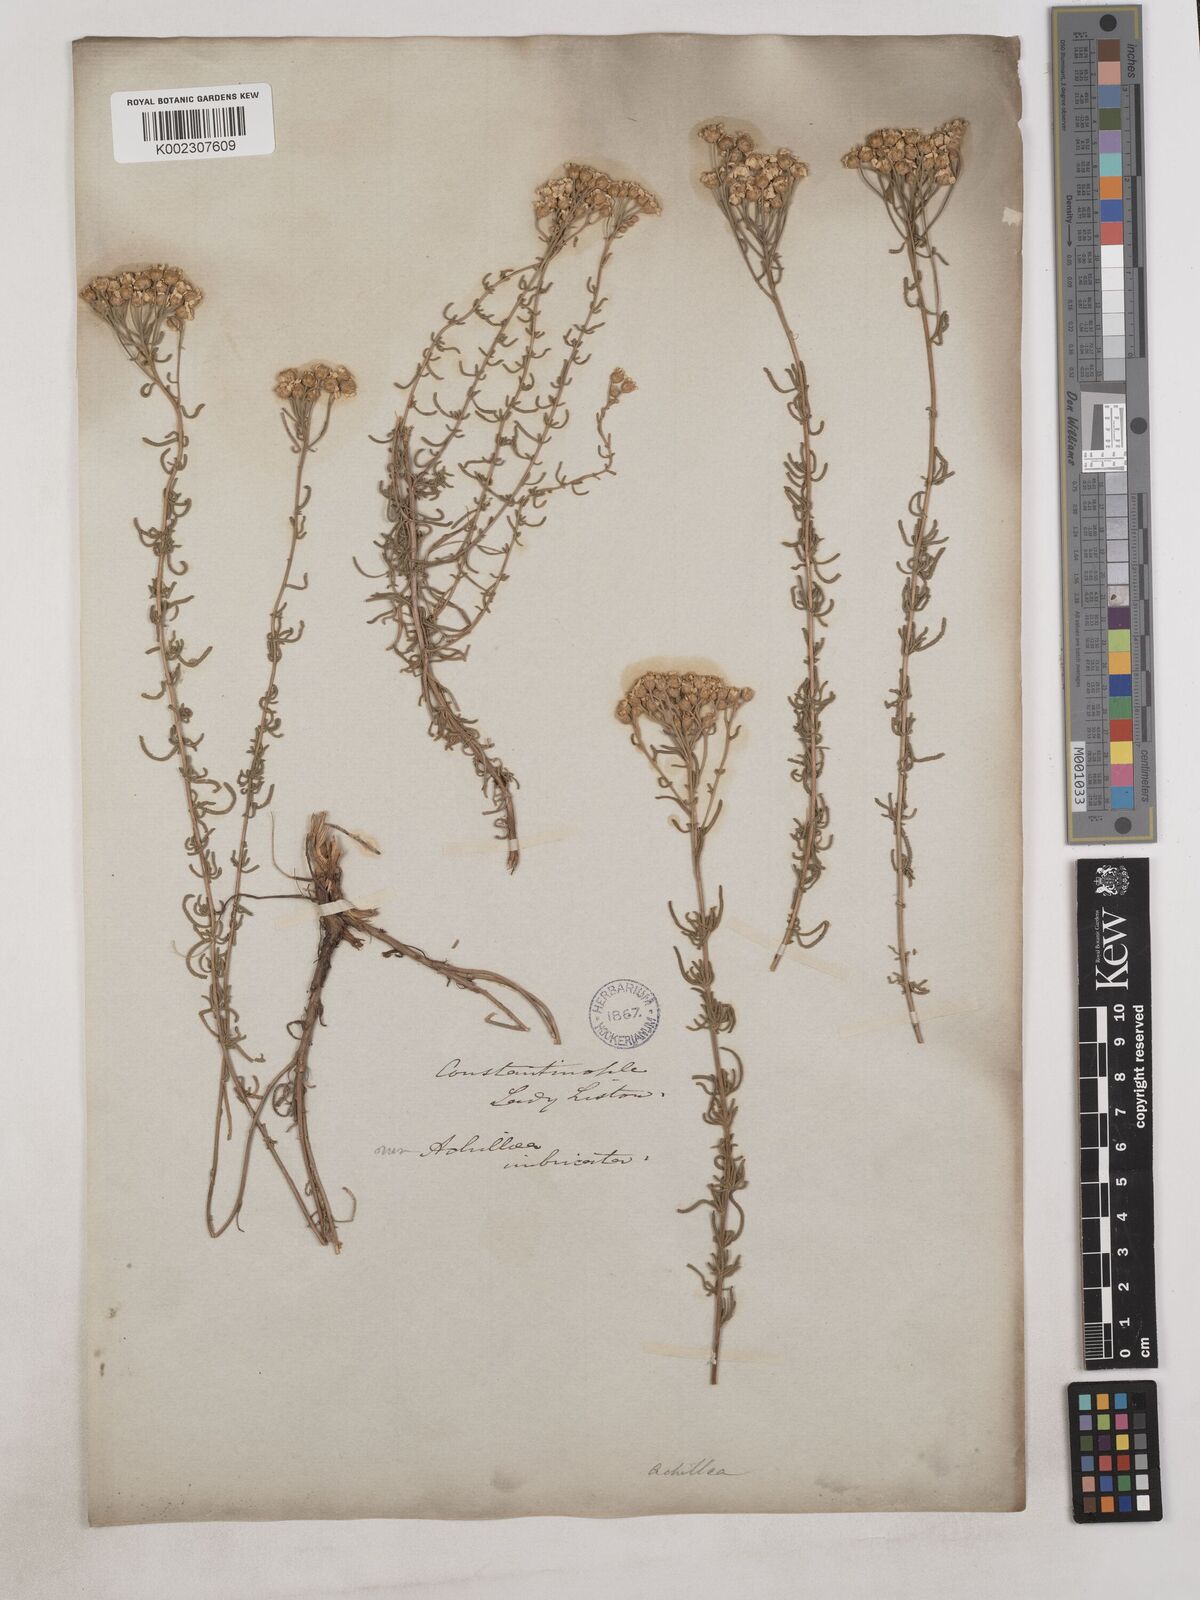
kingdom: Plantae
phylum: Tracheophyta
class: Magnoliopsida
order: Asterales
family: Asteraceae
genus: Achillea
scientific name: Achillea teretifolia
